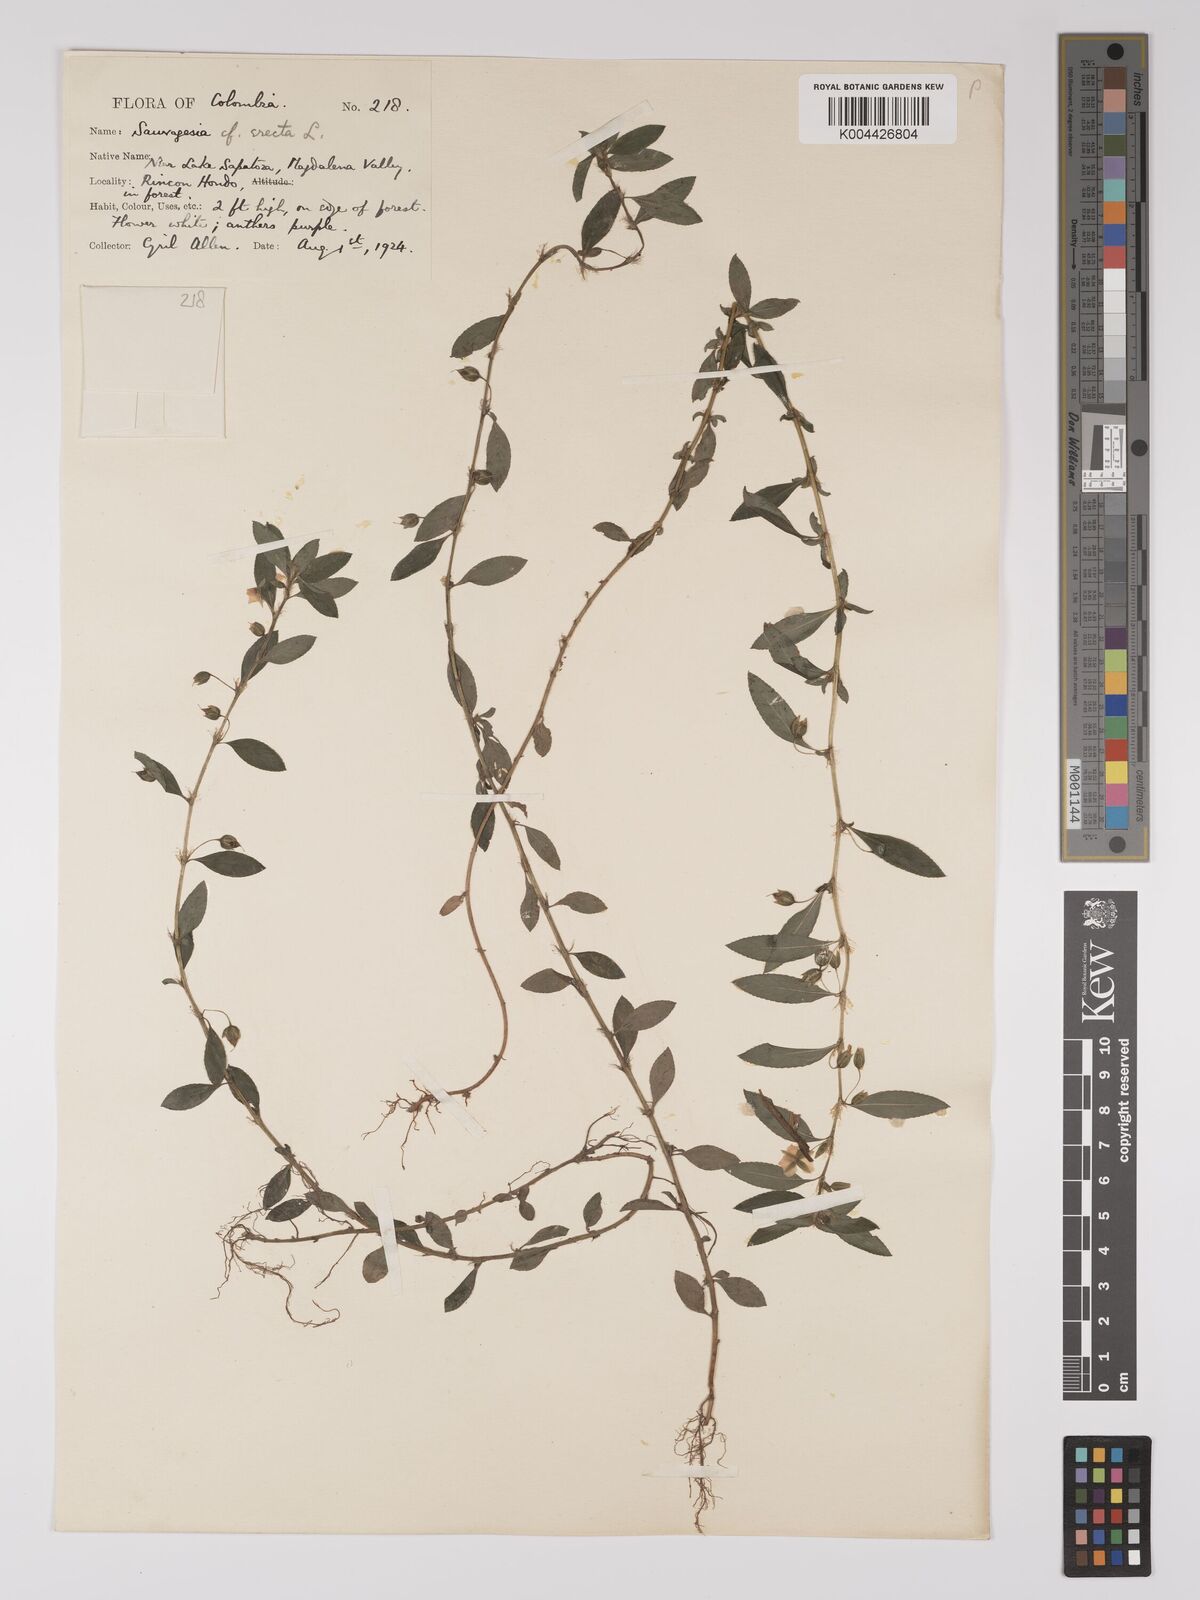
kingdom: Plantae
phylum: Tracheophyta
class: Magnoliopsida
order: Malpighiales
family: Ochnaceae
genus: Sauvagesia
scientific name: Sauvagesia erecta
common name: Creole tea
